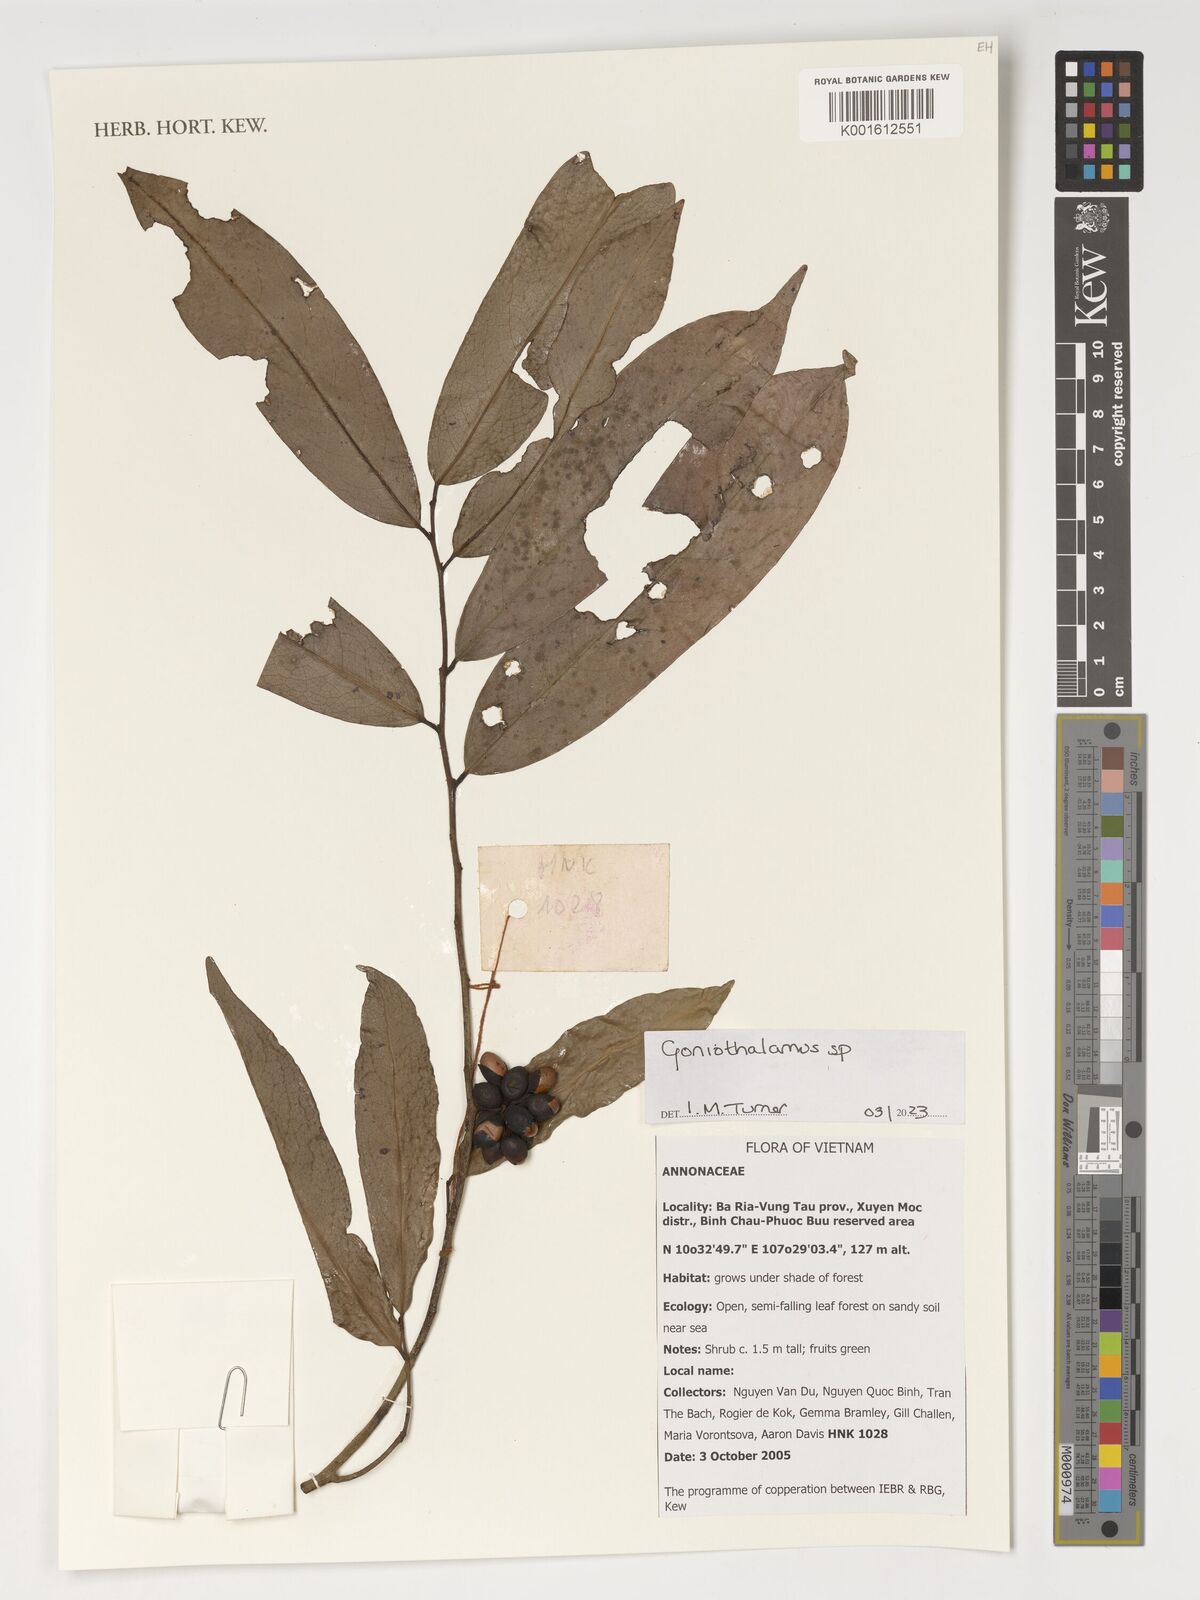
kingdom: Plantae
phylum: Tracheophyta
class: Magnoliopsida
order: Magnoliales
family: Annonaceae
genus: Goniothalamus
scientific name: Goniothalamus
